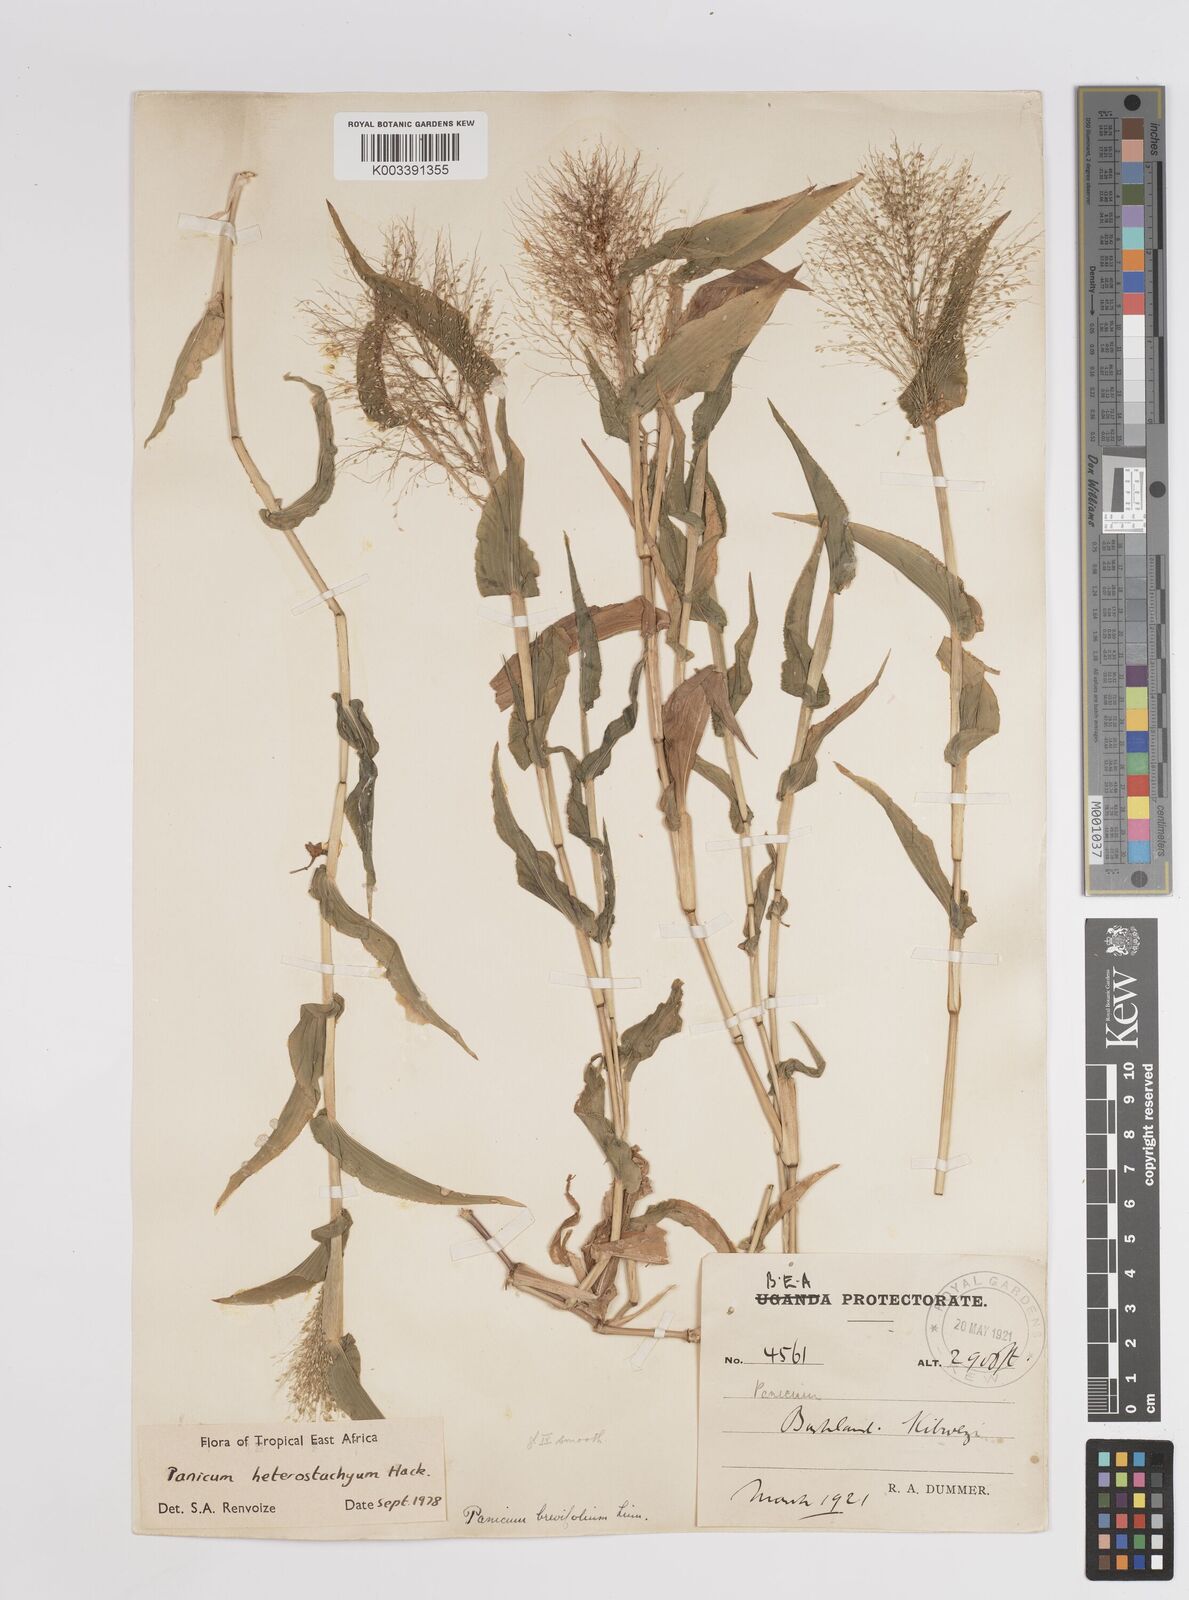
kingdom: Plantae
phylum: Tracheophyta
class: Liliopsida
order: Poales
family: Poaceae
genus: Panicum
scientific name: Panicum hirtum
